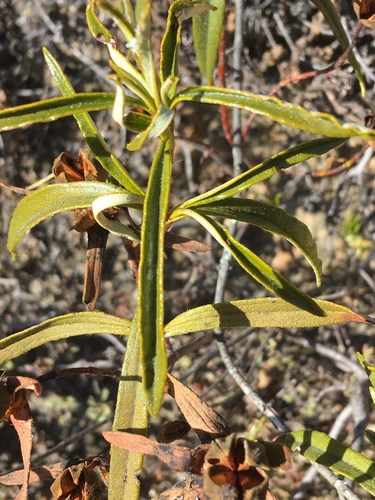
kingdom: Plantae
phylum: Tracheophyta
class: Magnoliopsida
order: Malvales
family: Cistaceae
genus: Cistus
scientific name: Cistus ladanifer
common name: Common gum cistus
